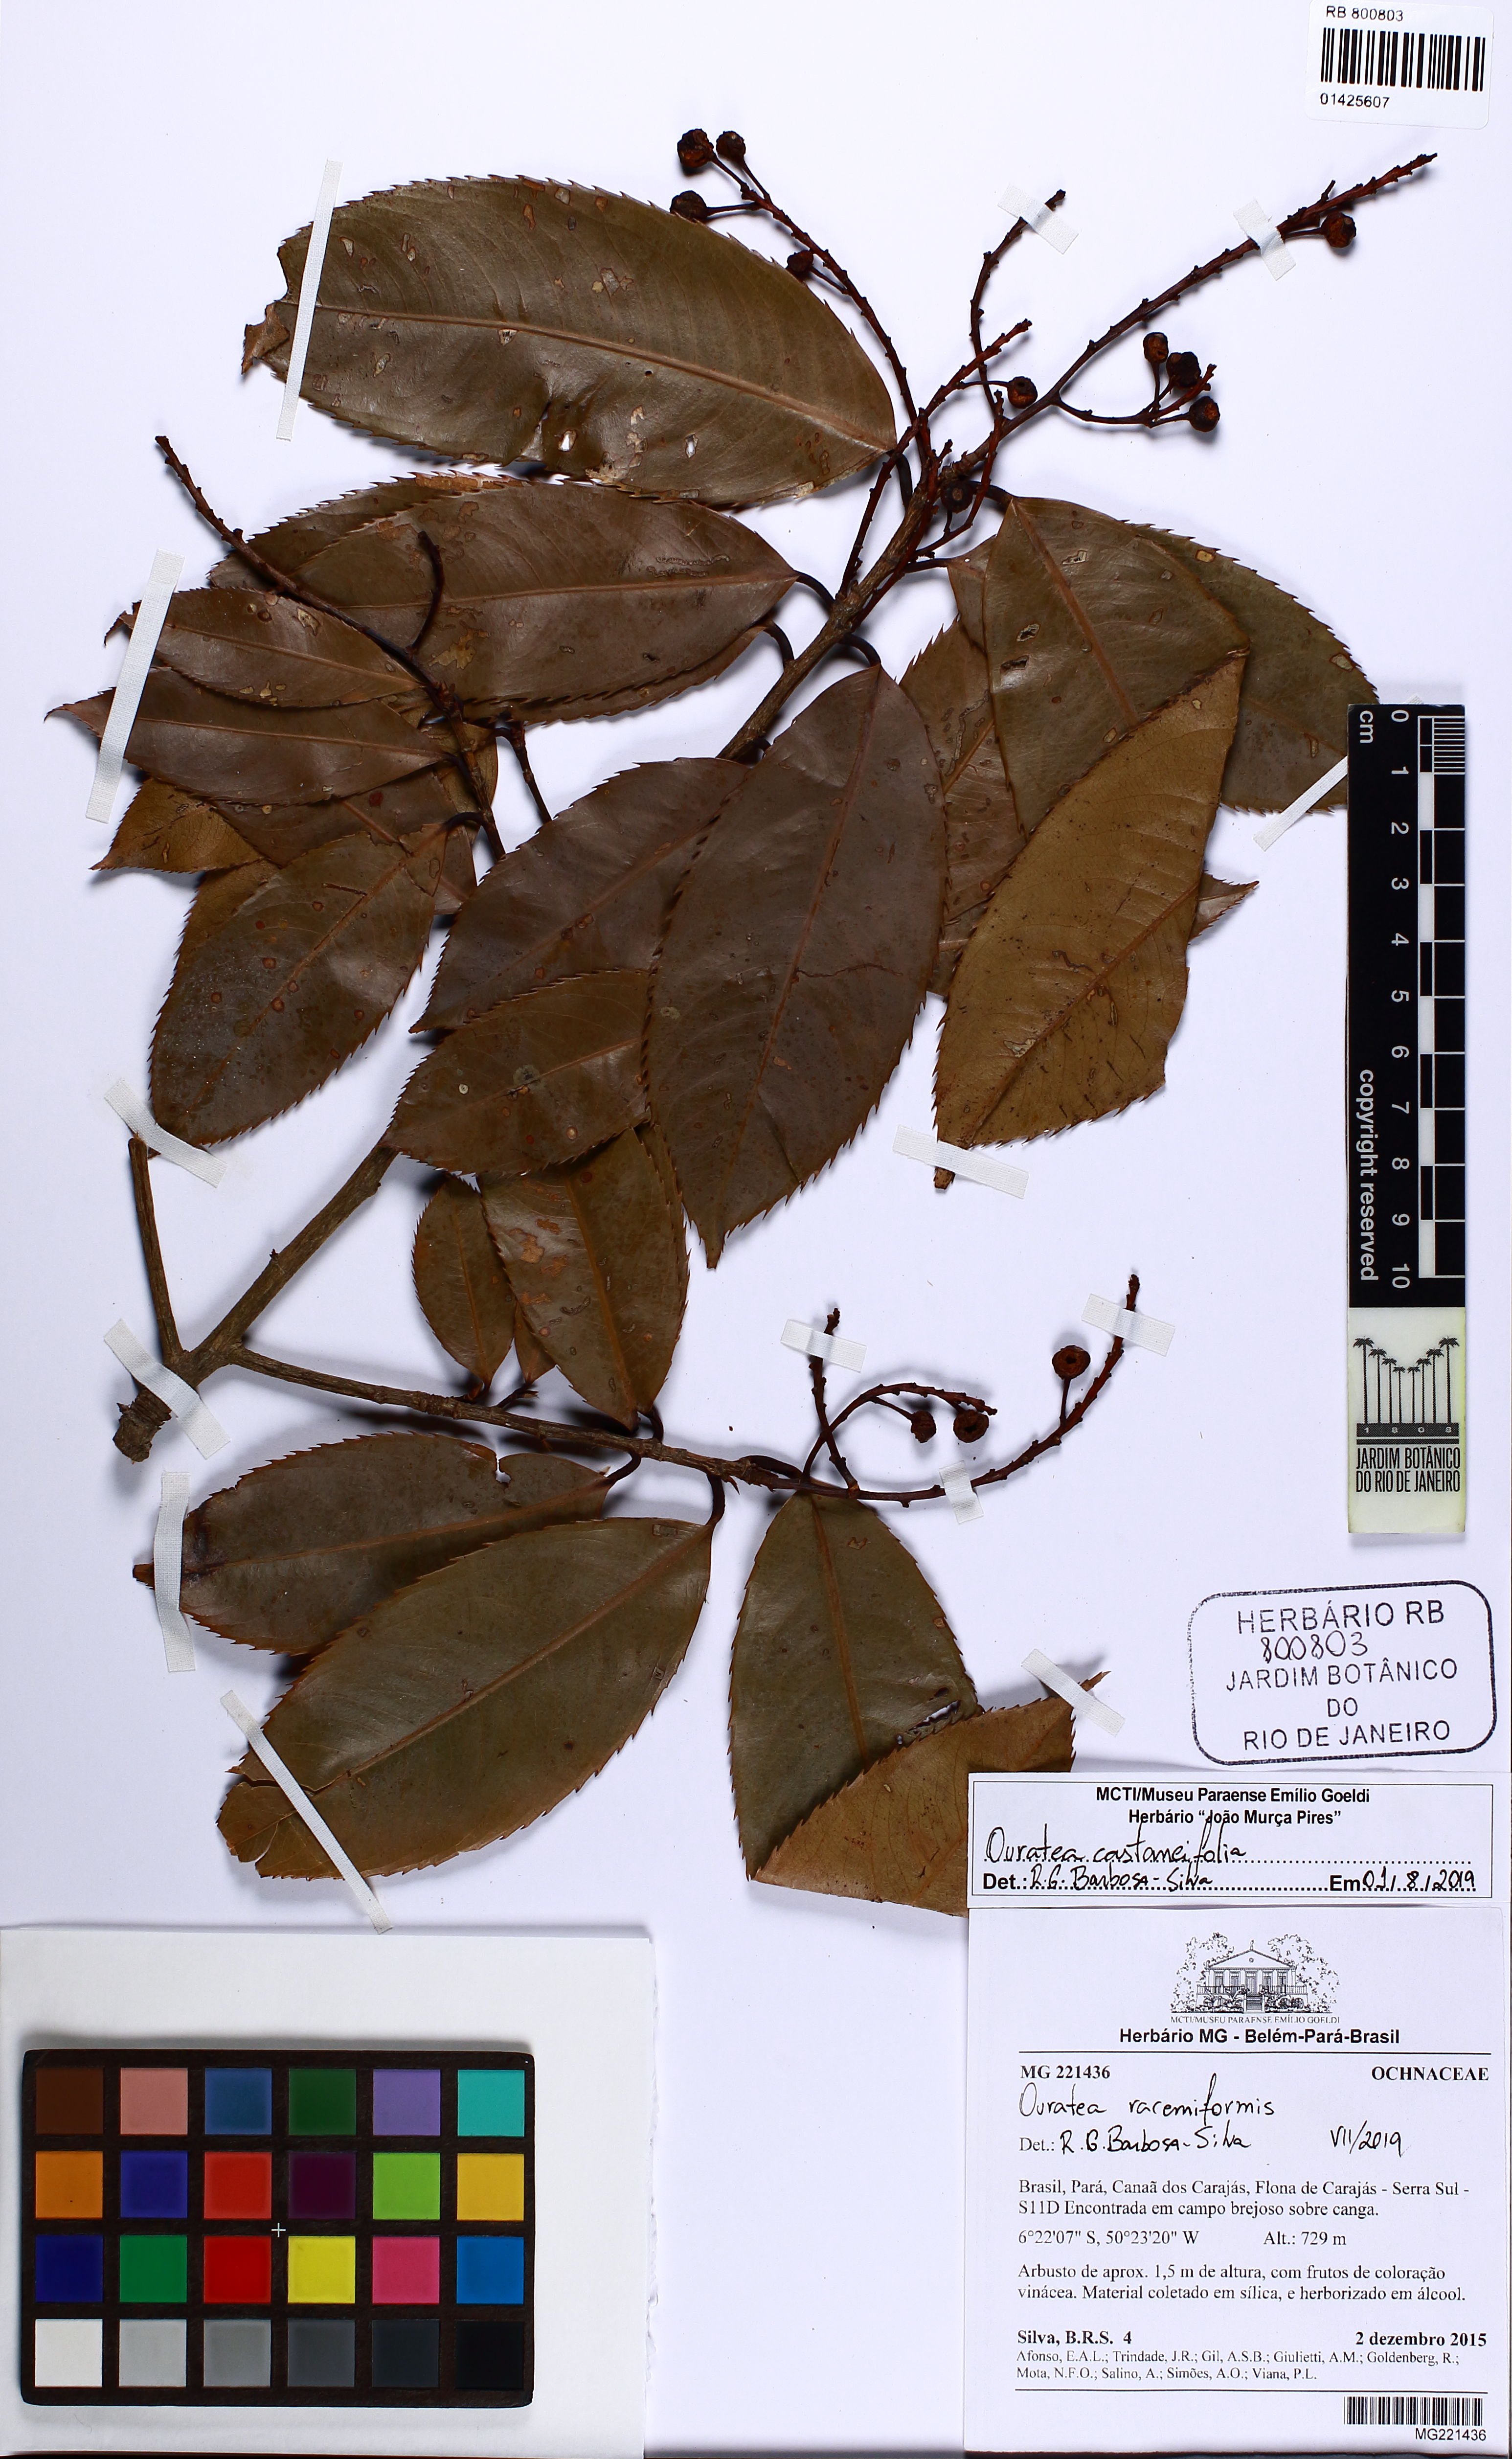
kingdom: Plantae
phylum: Tracheophyta
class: Magnoliopsida
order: Malpighiales
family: Ochnaceae
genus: Ouratea
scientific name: Ouratea castaneifolia
